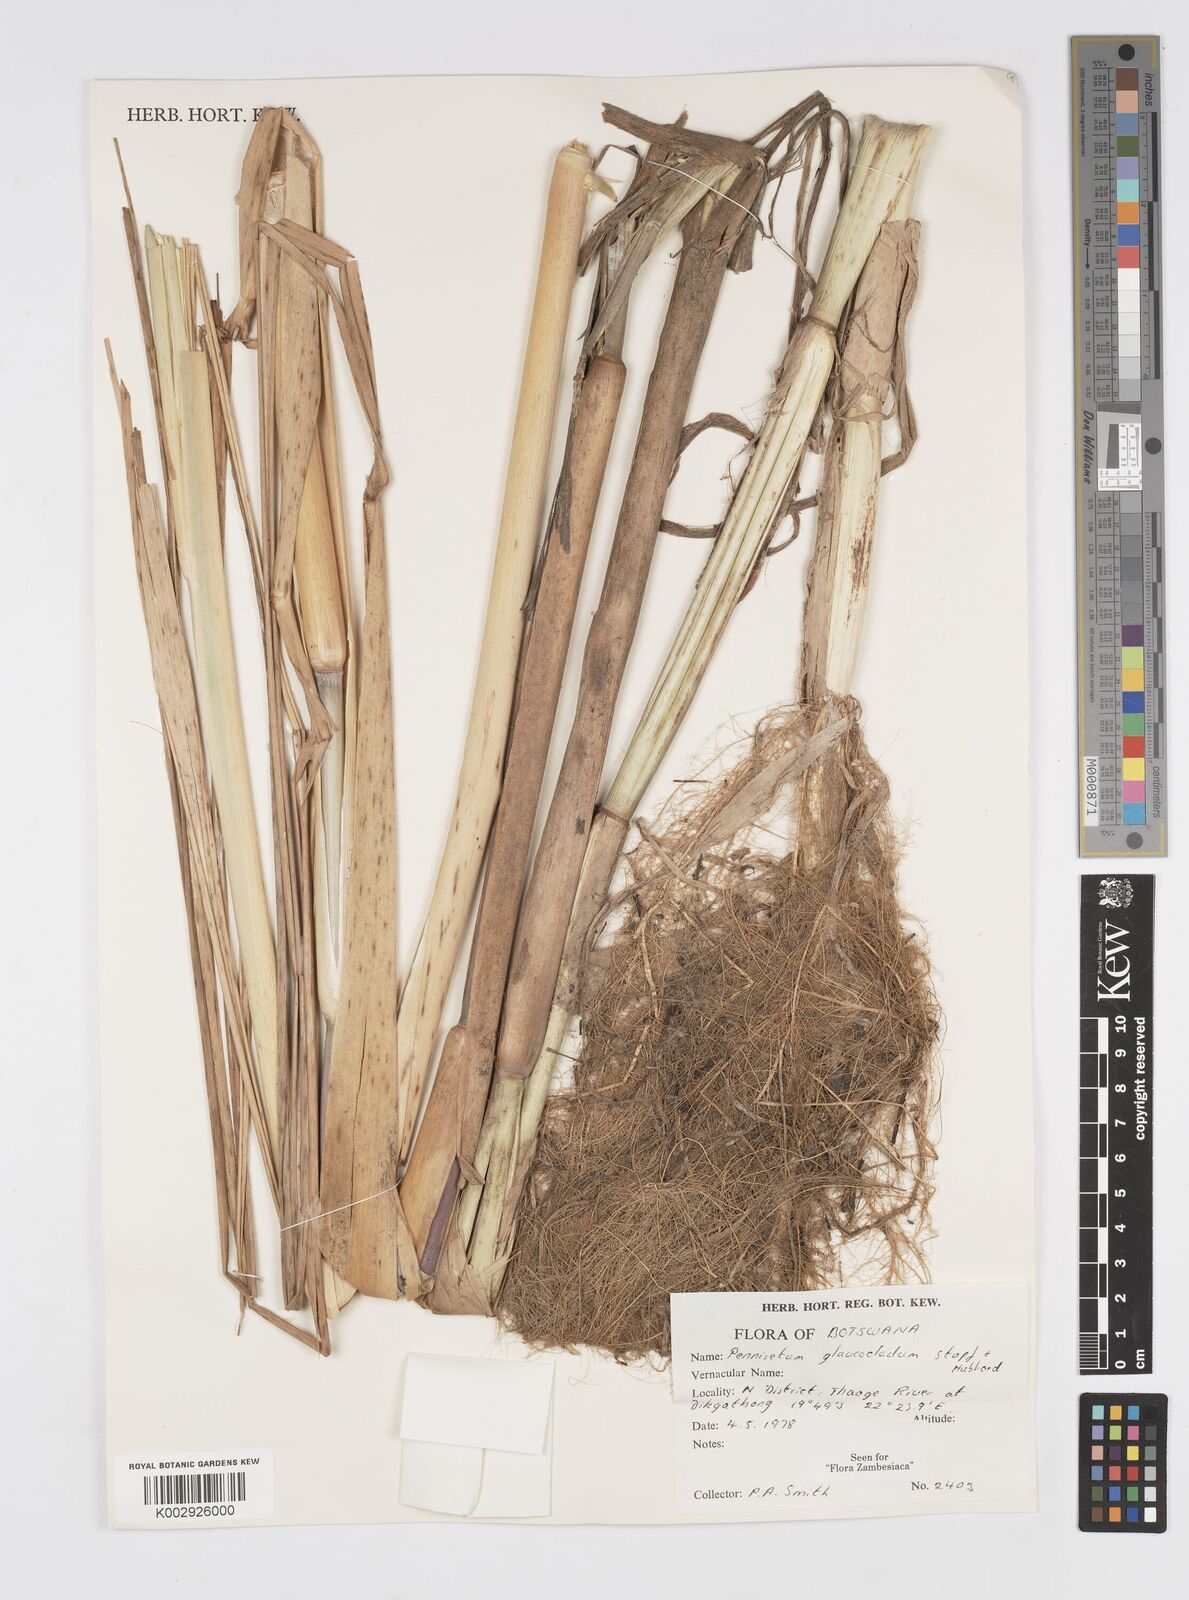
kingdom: Plantae
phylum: Tracheophyta
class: Liliopsida
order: Poales
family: Poaceae
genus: Cenchrus
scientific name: Cenchrus caudatus
